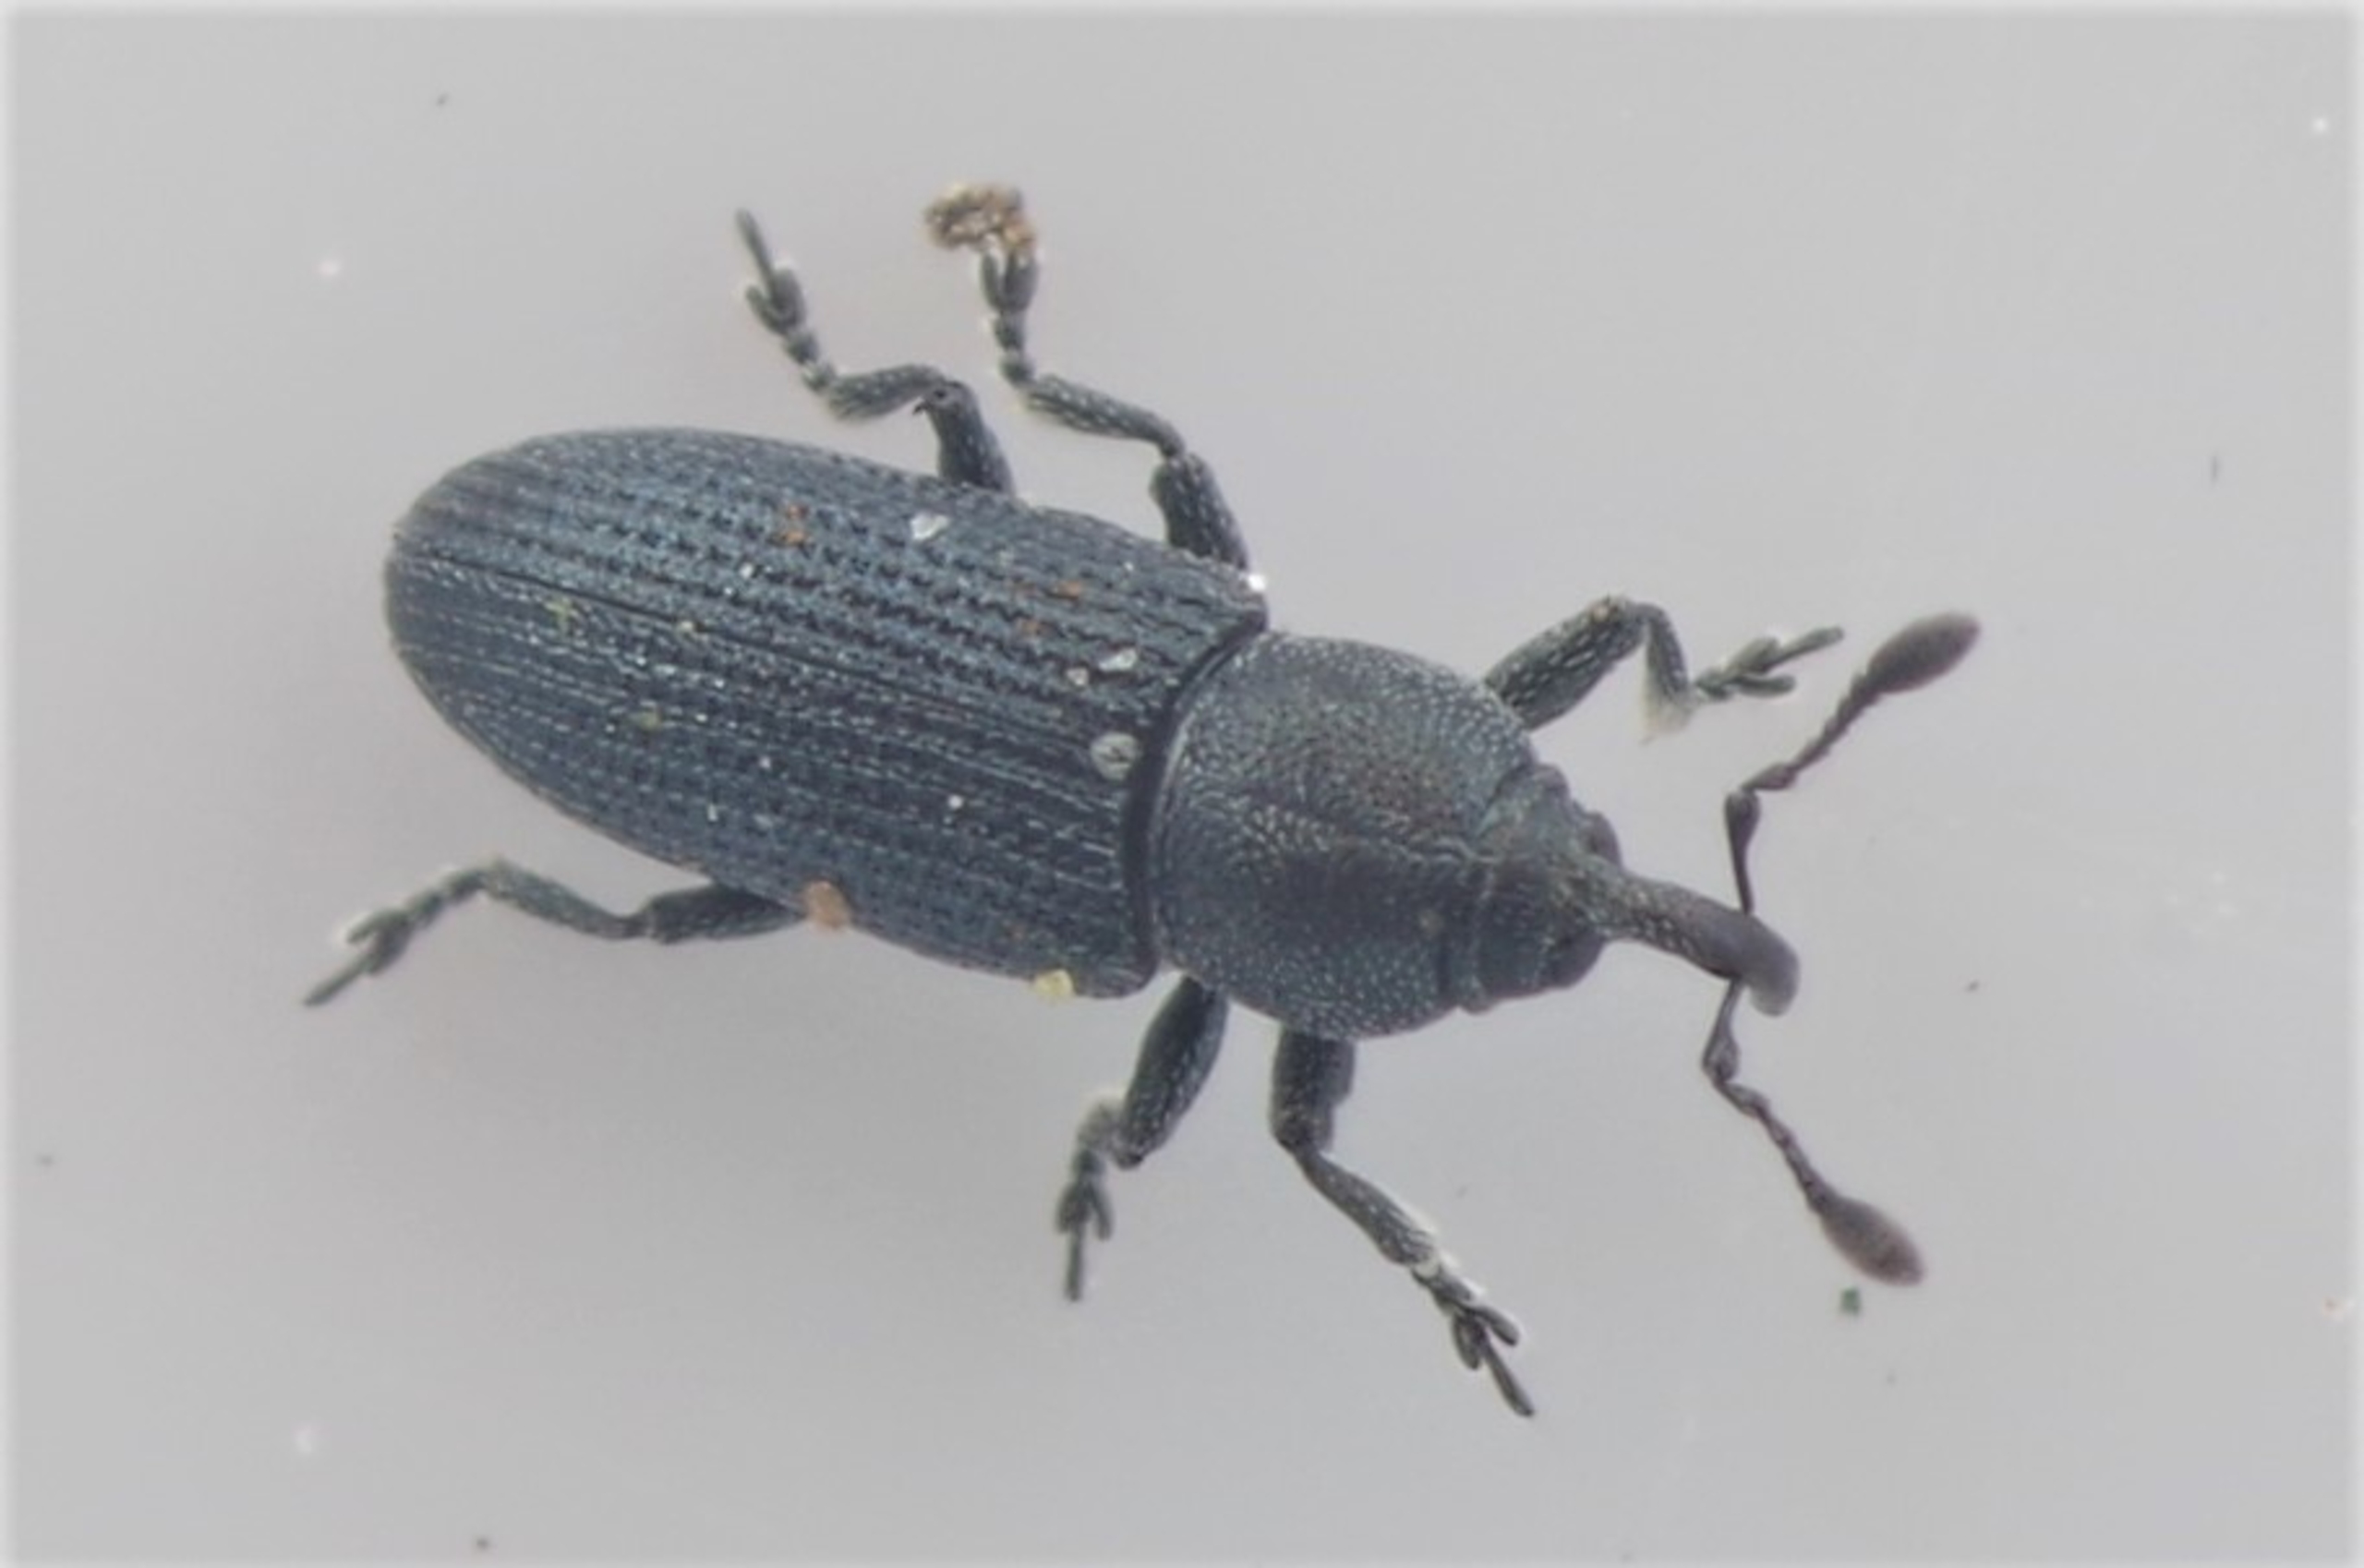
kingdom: Animalia
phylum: Arthropoda
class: Insecta
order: Coleoptera
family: Curculionidae
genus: Mecinus
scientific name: Mecinus heydeni
